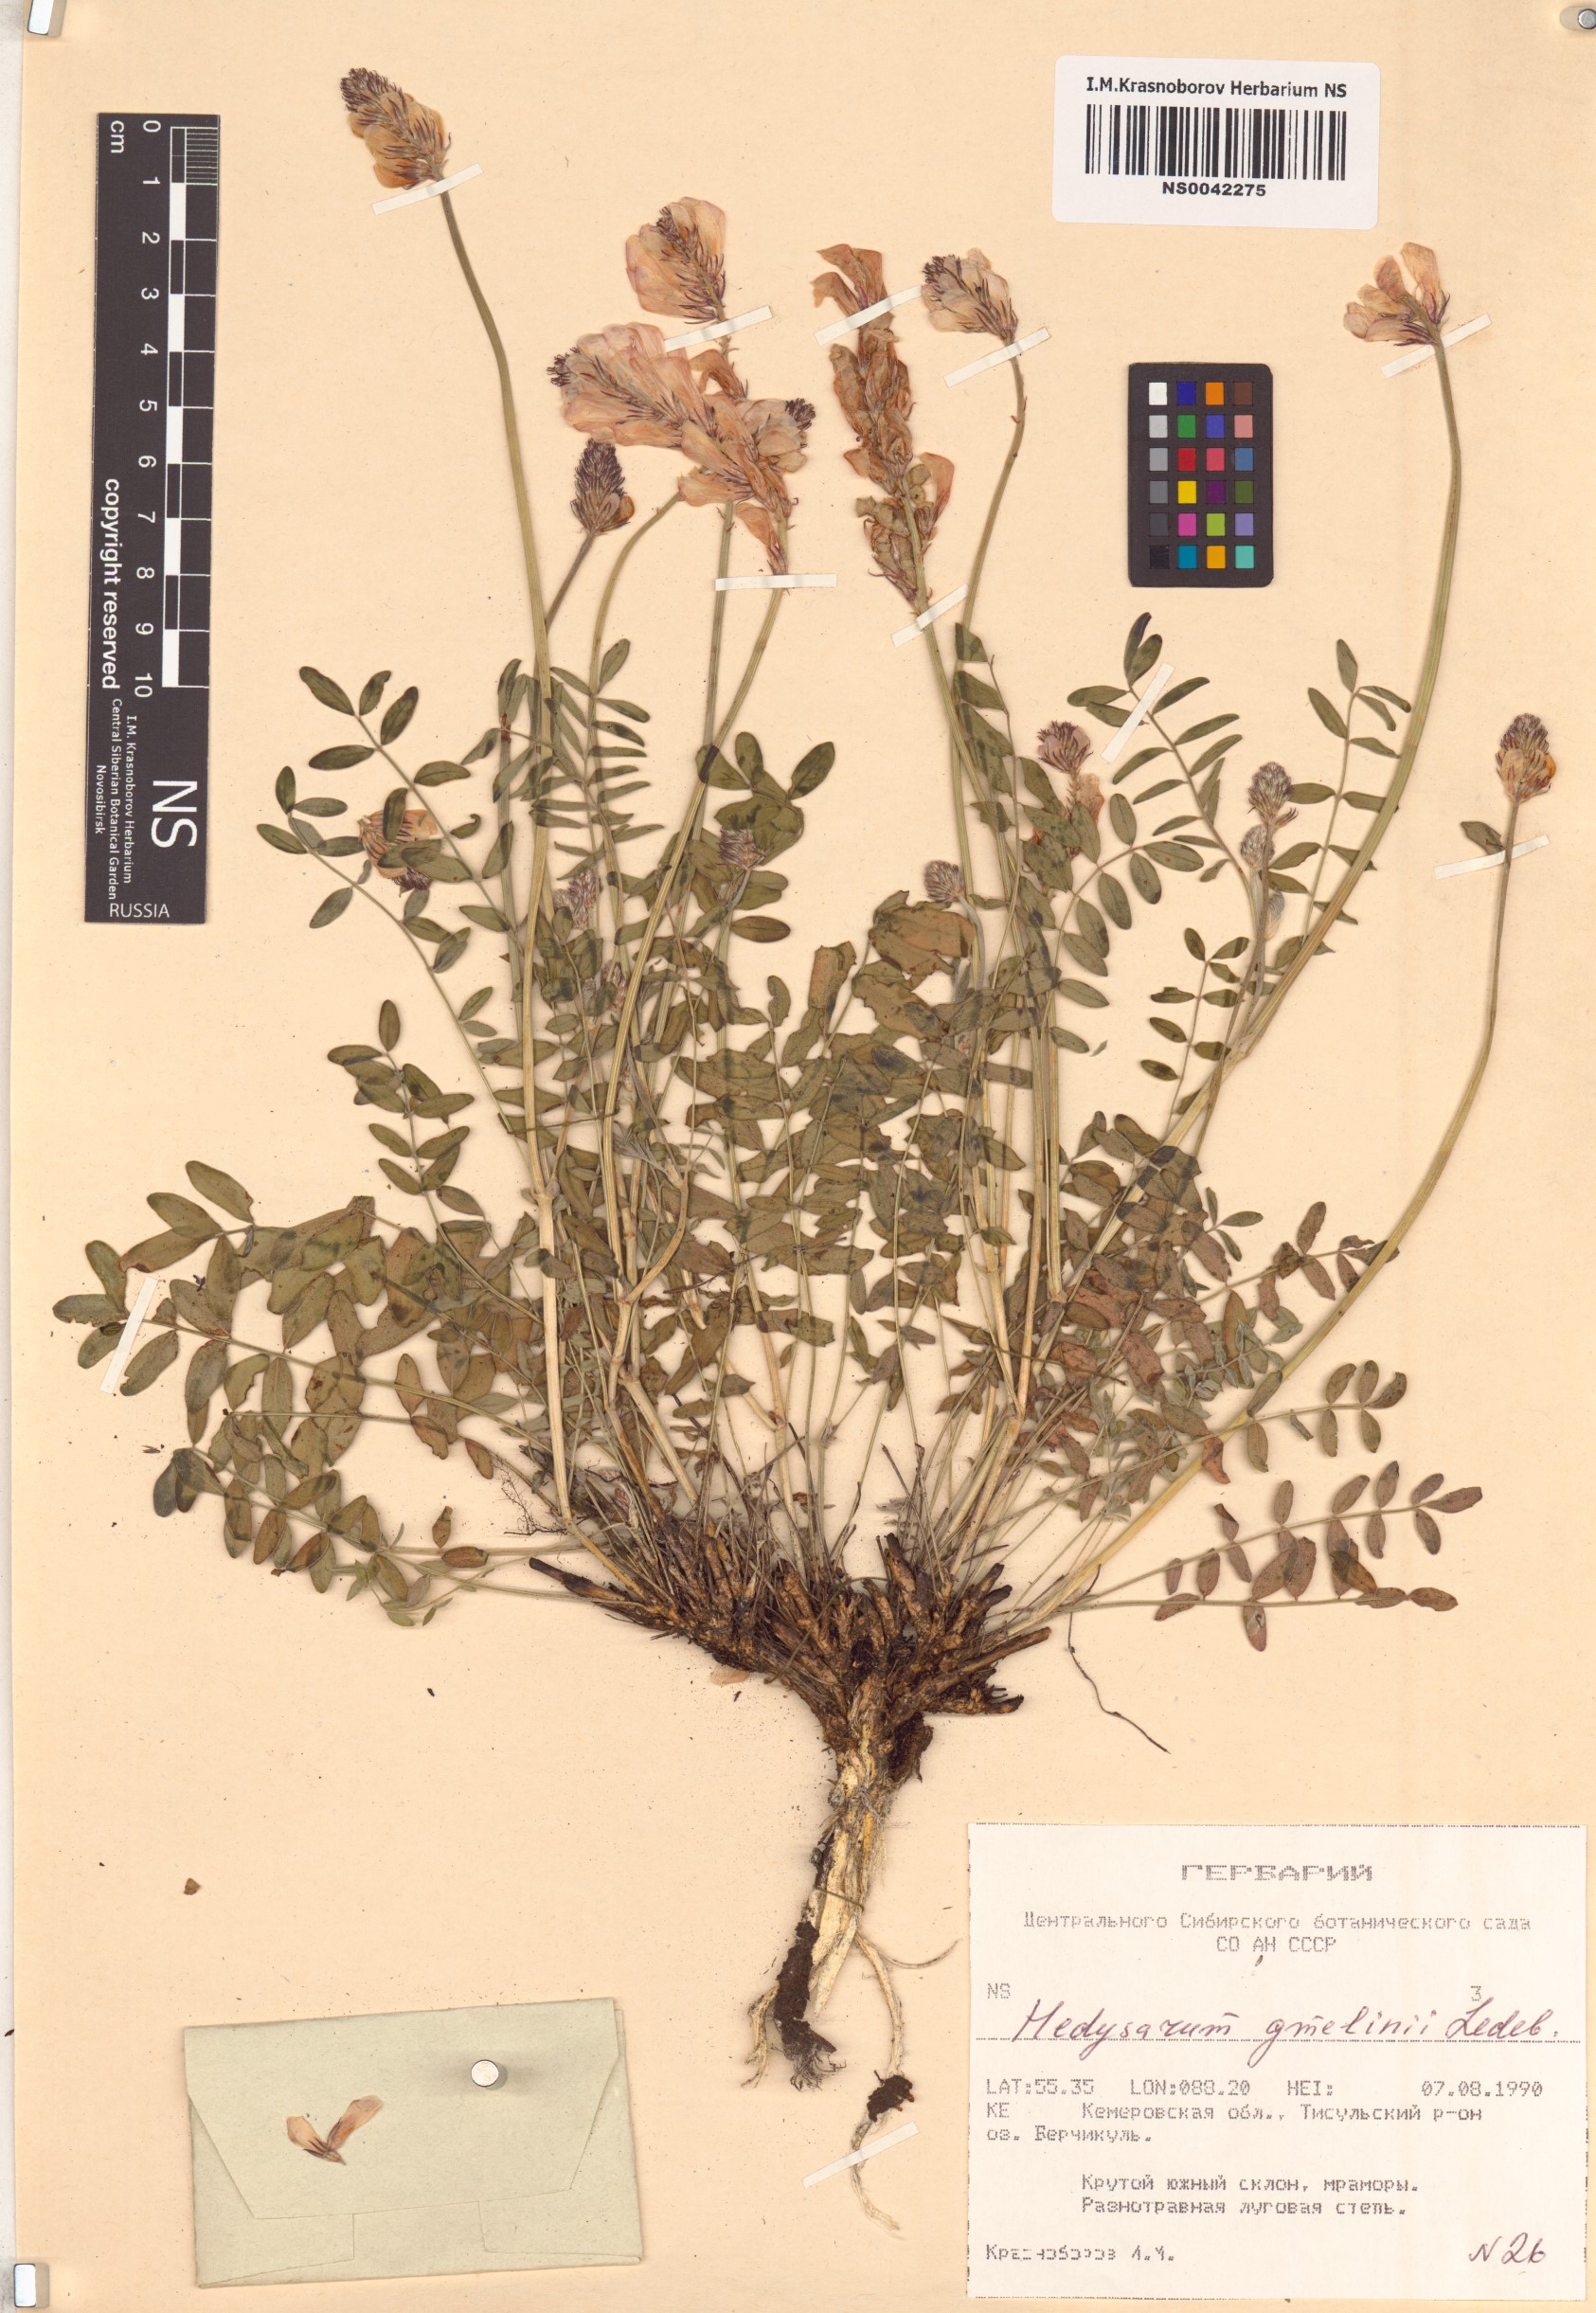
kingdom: Plantae
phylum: Tracheophyta
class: Magnoliopsida
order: Fabales
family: Fabaceae
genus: Hedysarum
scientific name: Hedysarum gmelinii
